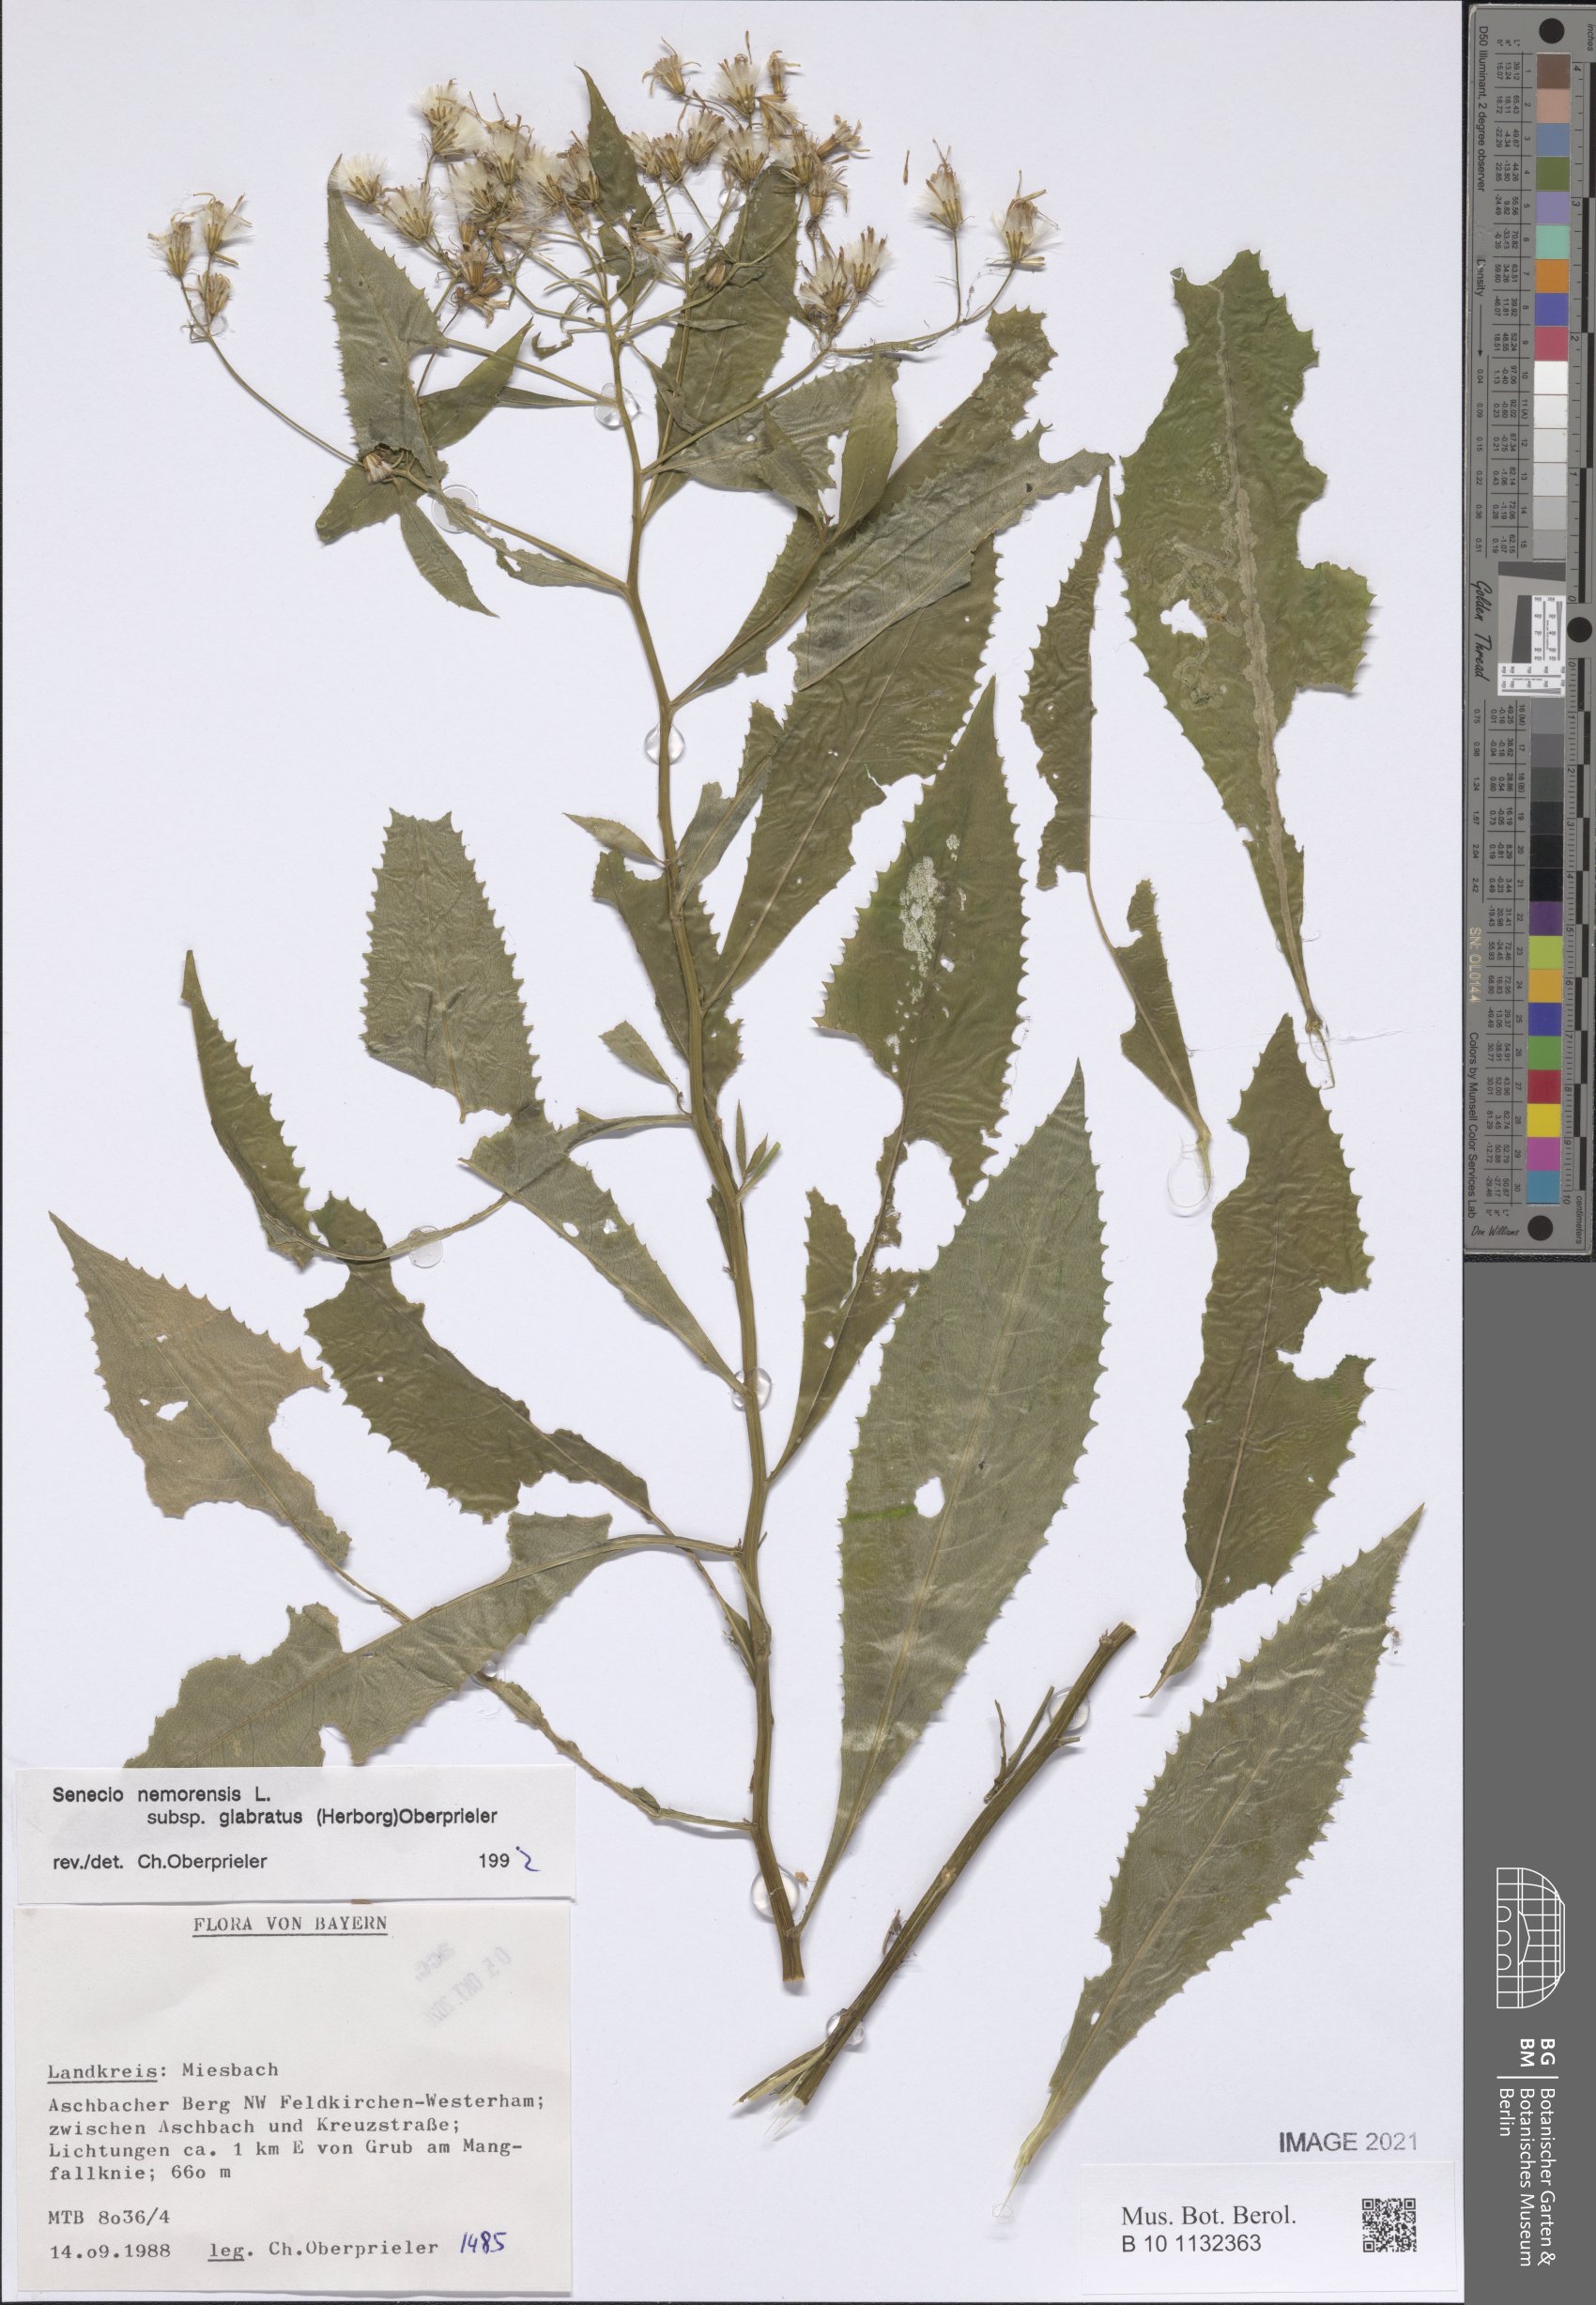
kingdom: Plantae
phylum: Tracheophyta
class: Magnoliopsida
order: Asterales
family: Asteraceae
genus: Senecio
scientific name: Senecio germanicus
